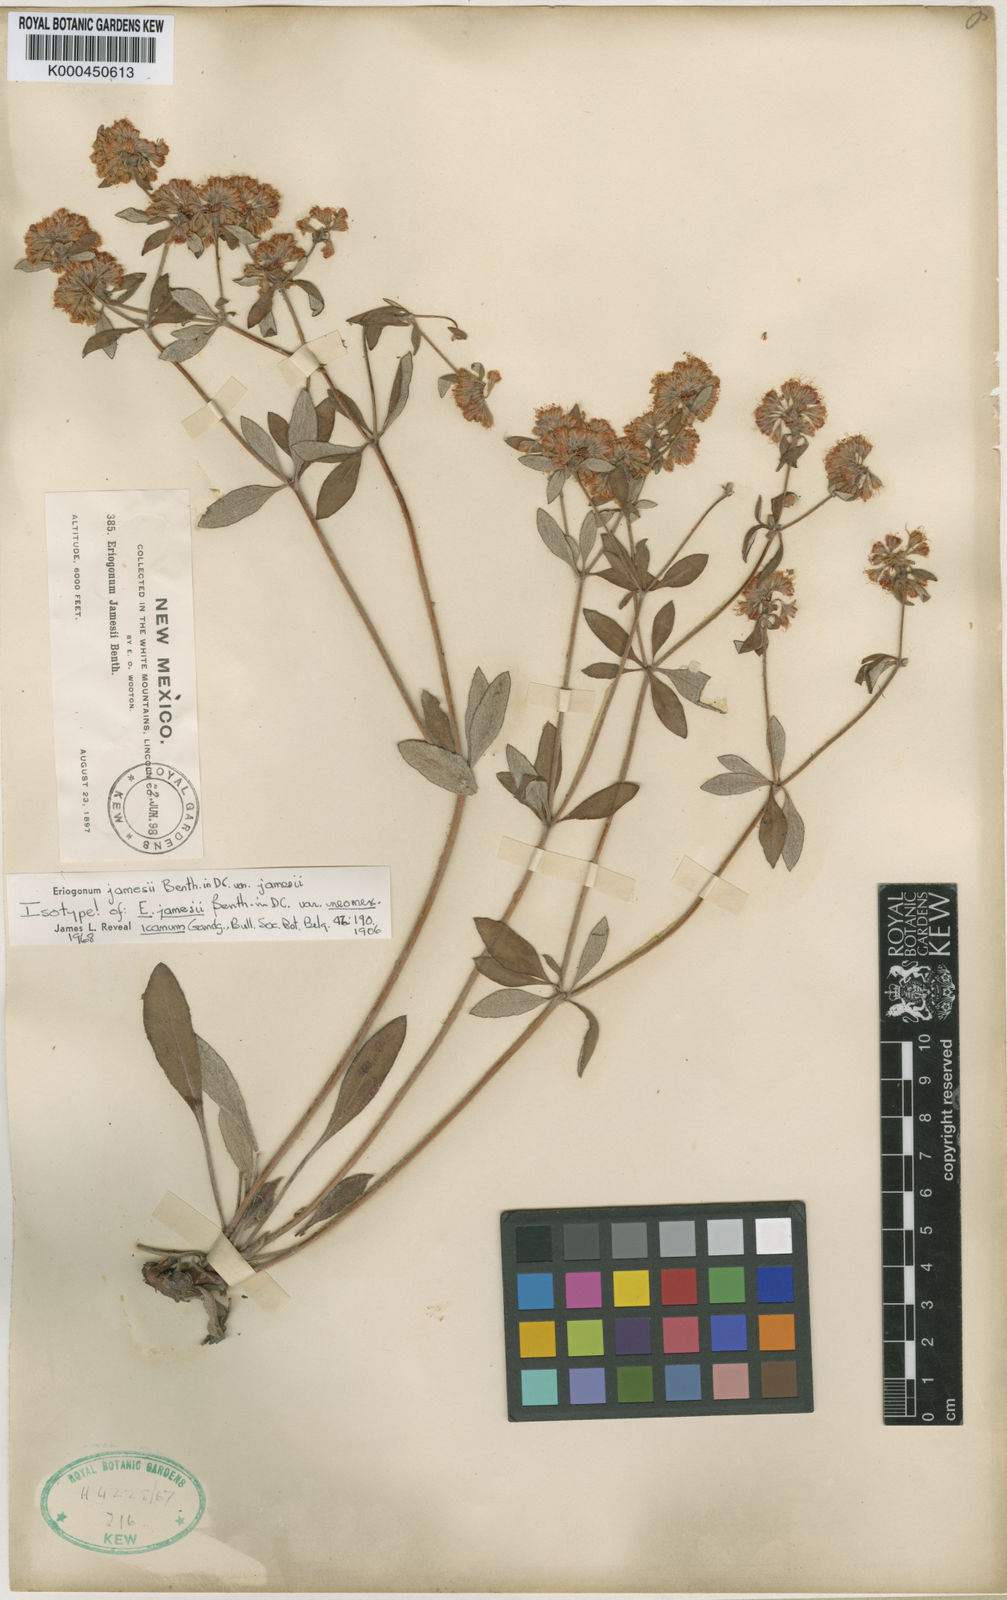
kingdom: Plantae
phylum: Tracheophyta
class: Magnoliopsida
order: Caryophyllales
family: Polygonaceae
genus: Eriogonum
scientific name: Eriogonum jamesii
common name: Antelope-sage
